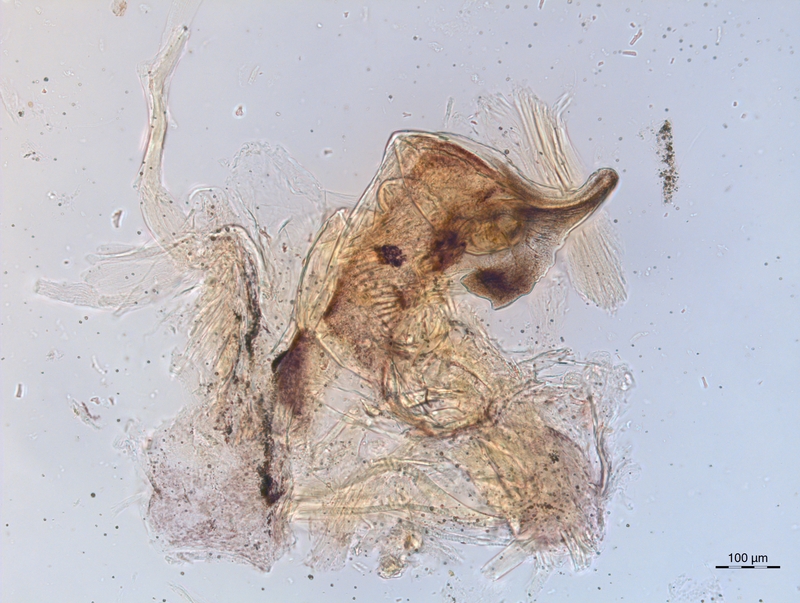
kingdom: Animalia
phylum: Arthropoda
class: Diplopoda
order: Chordeumatida
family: Craspedosomatidae
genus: Craspedosoma
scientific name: Craspedosoma alemannicum
